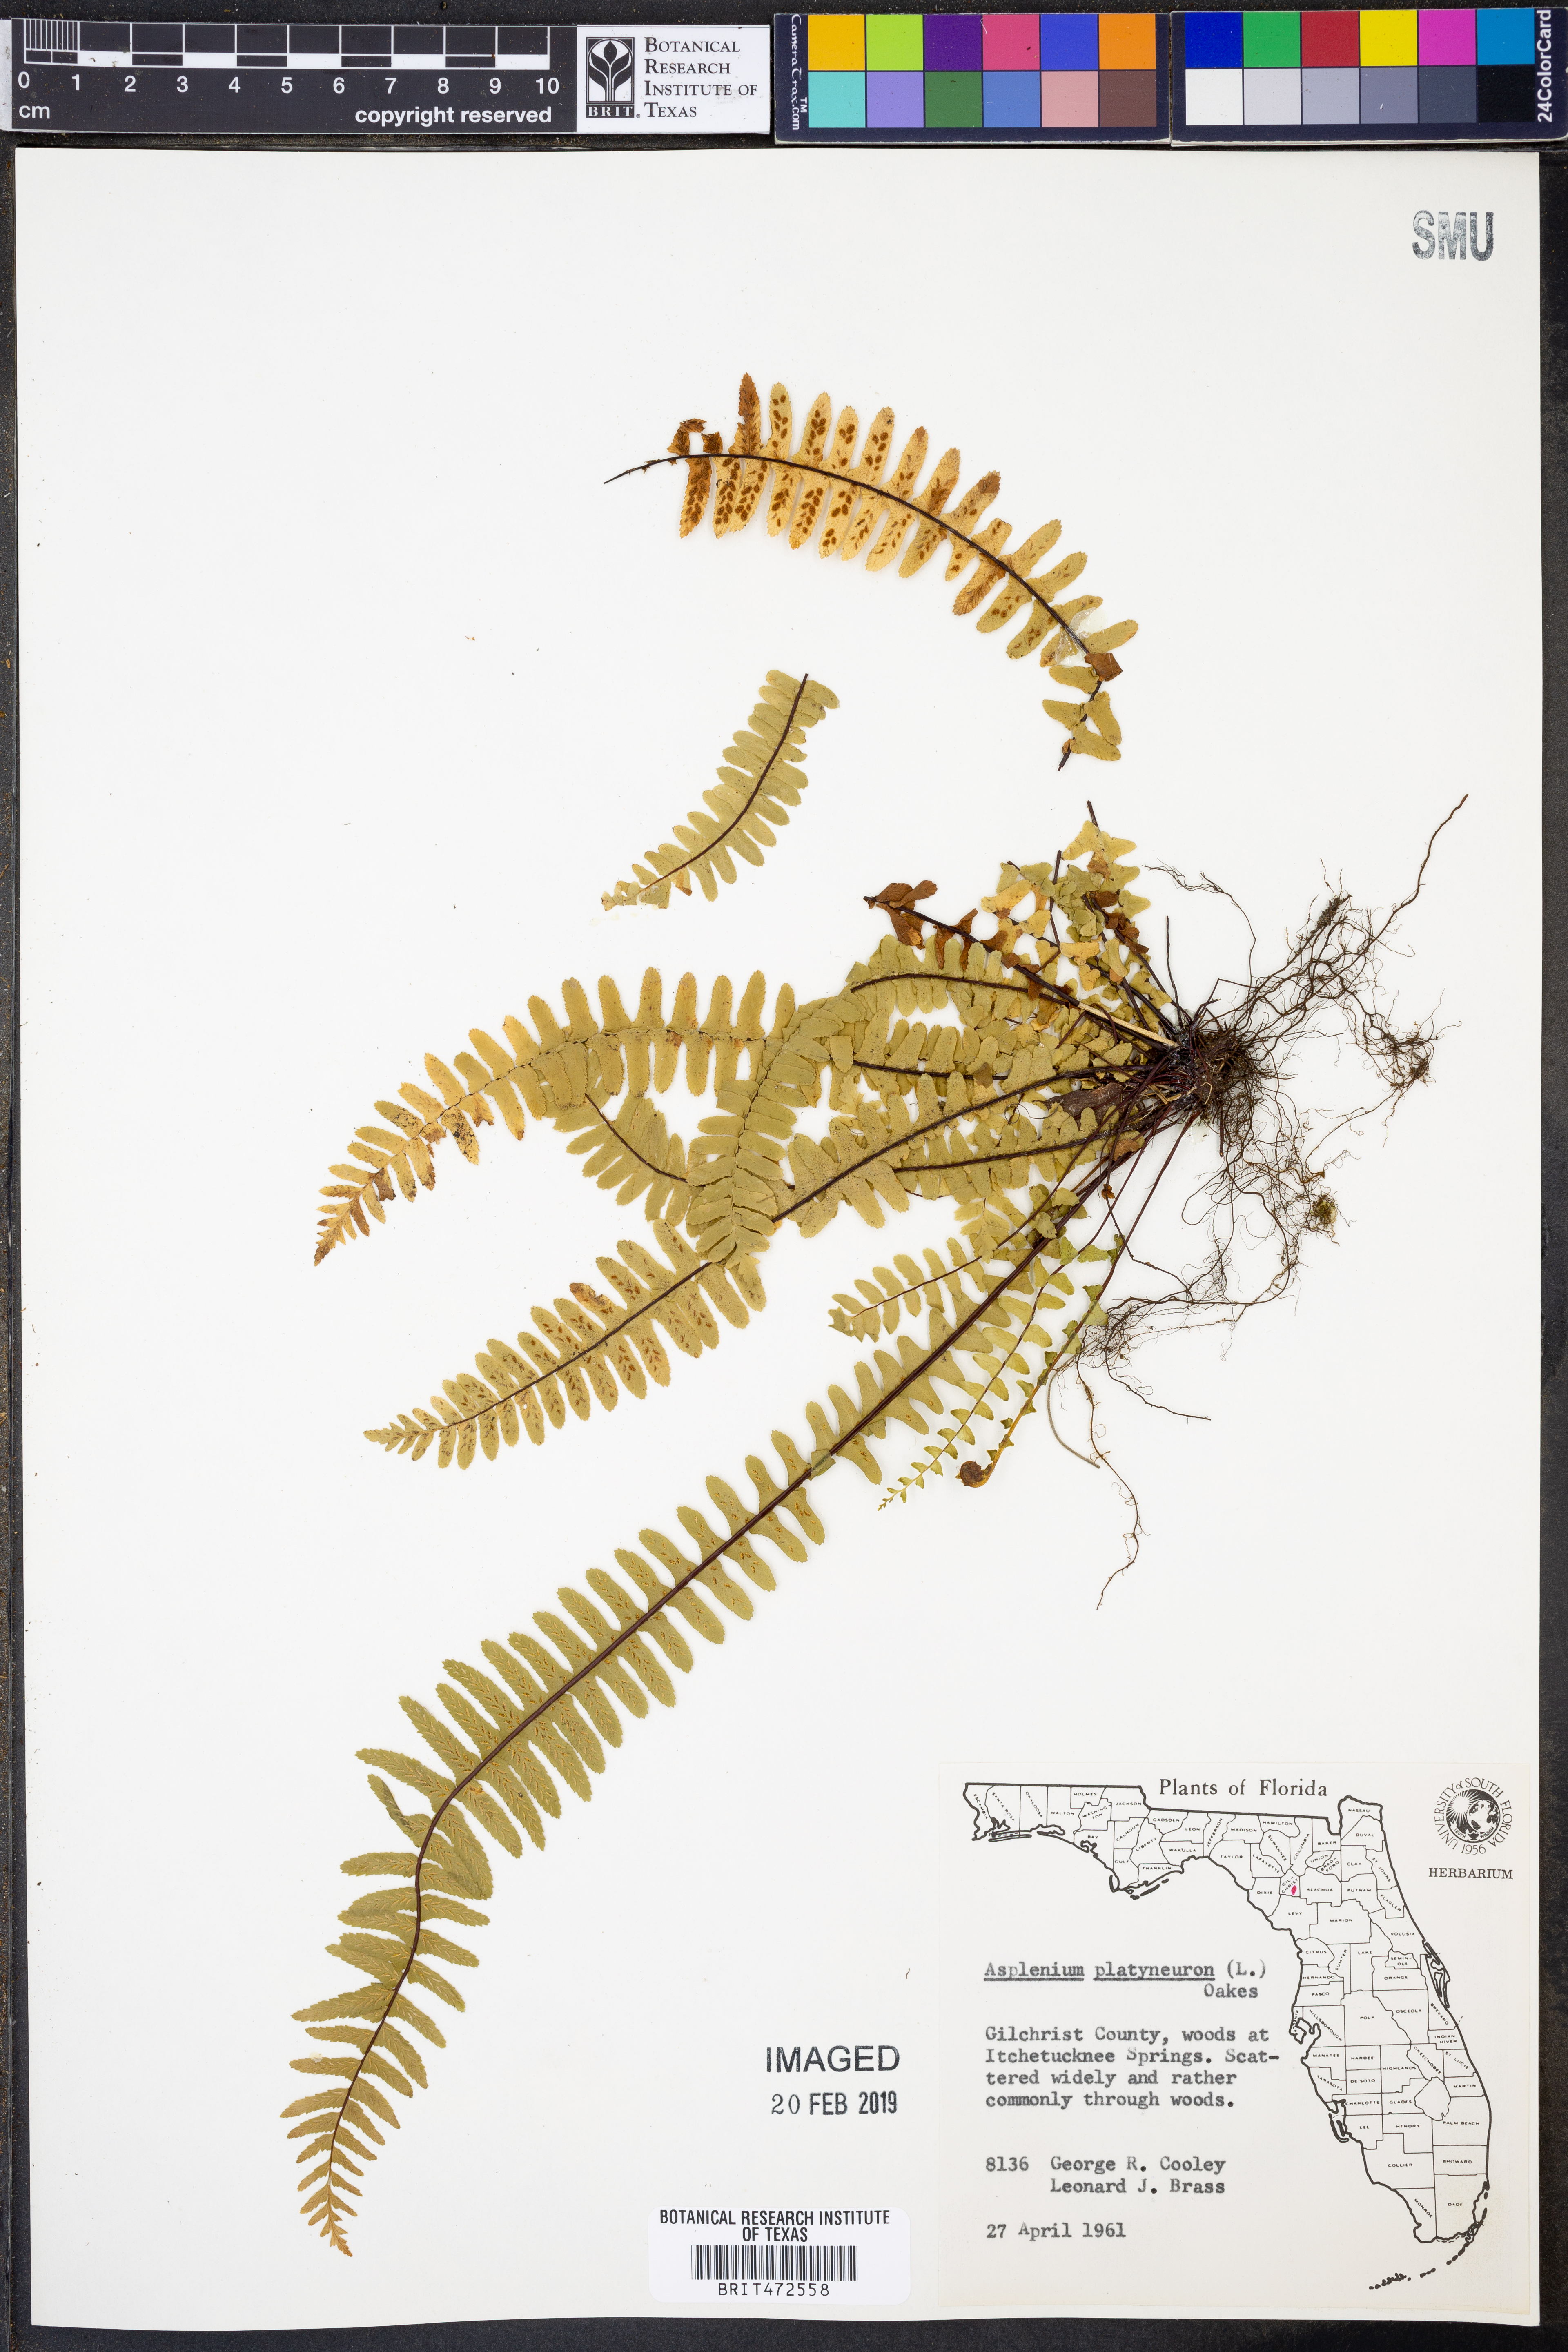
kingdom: Plantae
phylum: Tracheophyta
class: Polypodiopsida
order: Polypodiales
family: Aspleniaceae
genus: Asplenium
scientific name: Asplenium platyneuron
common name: Ebony spleenwort
